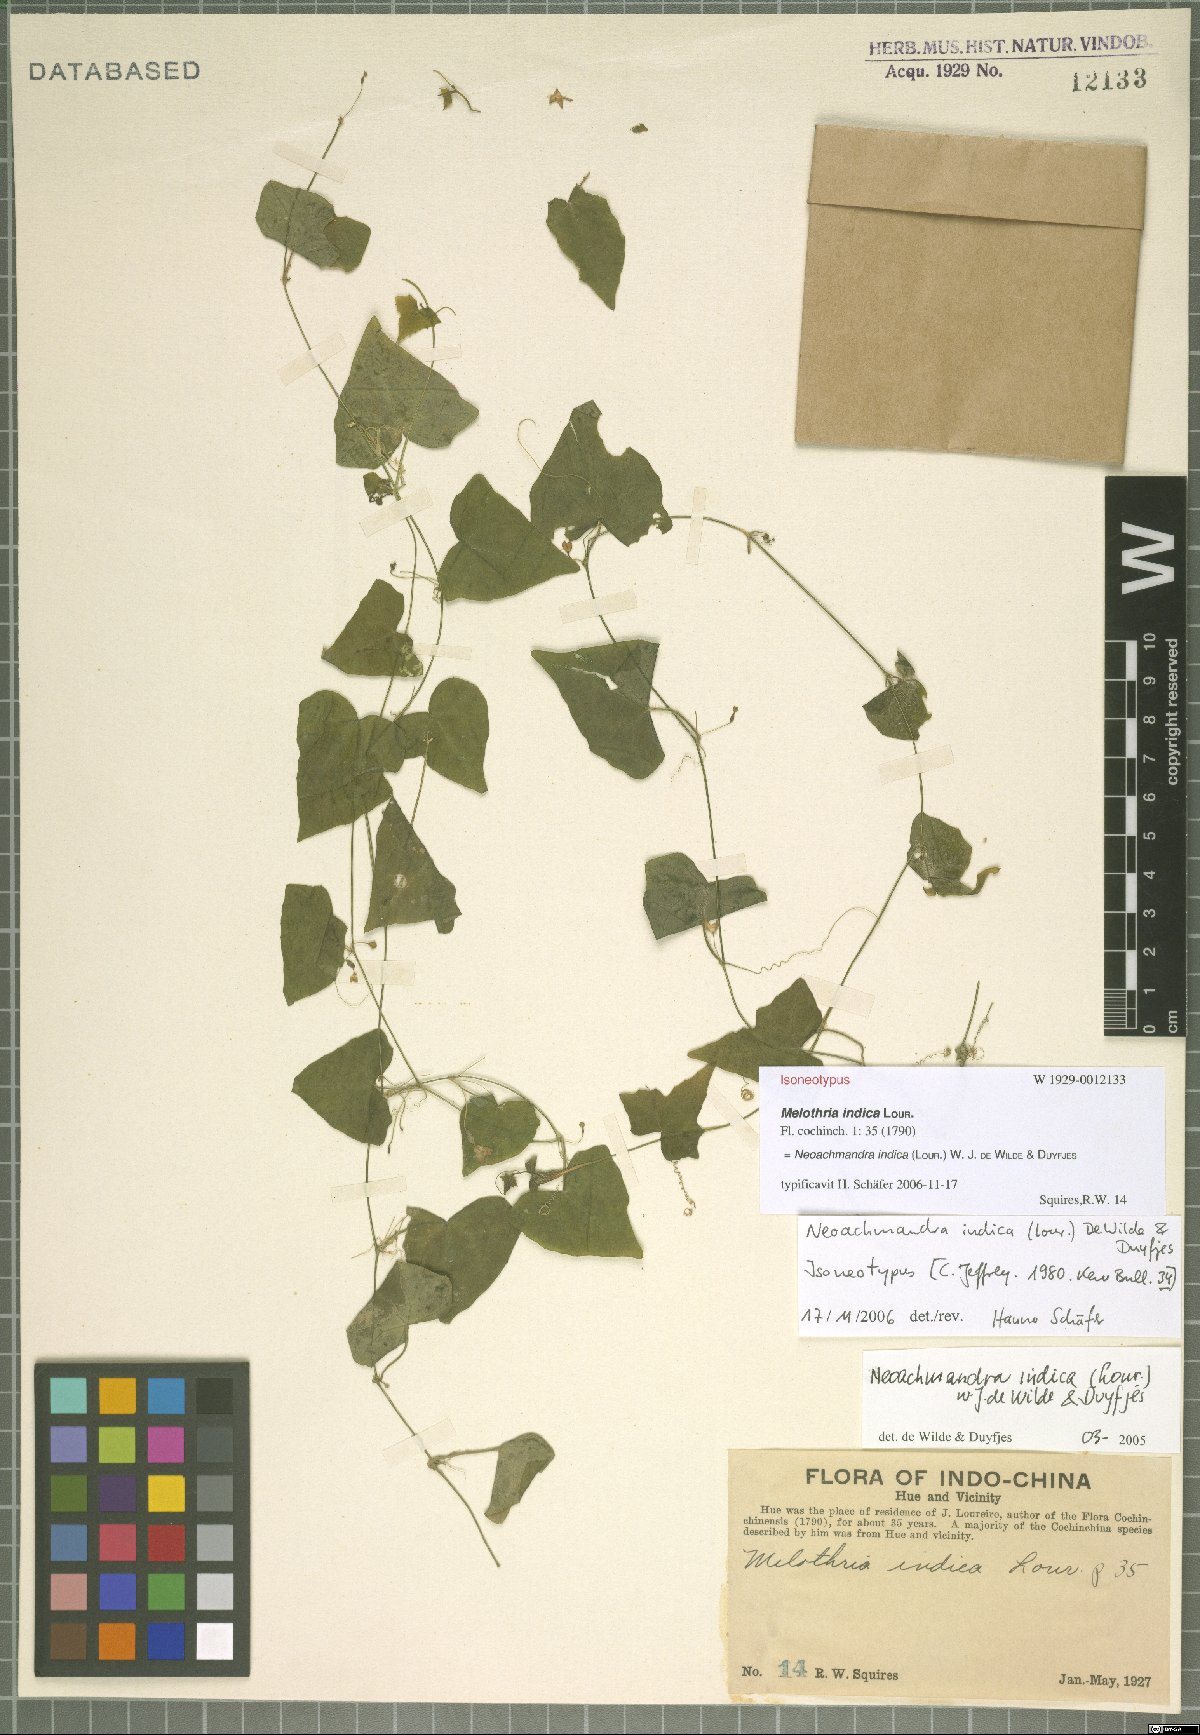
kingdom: Plantae
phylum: Tracheophyta
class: Magnoliopsida
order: Cucurbitales
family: Cucurbitaceae
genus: Zehneria
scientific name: Zehneria odorata
